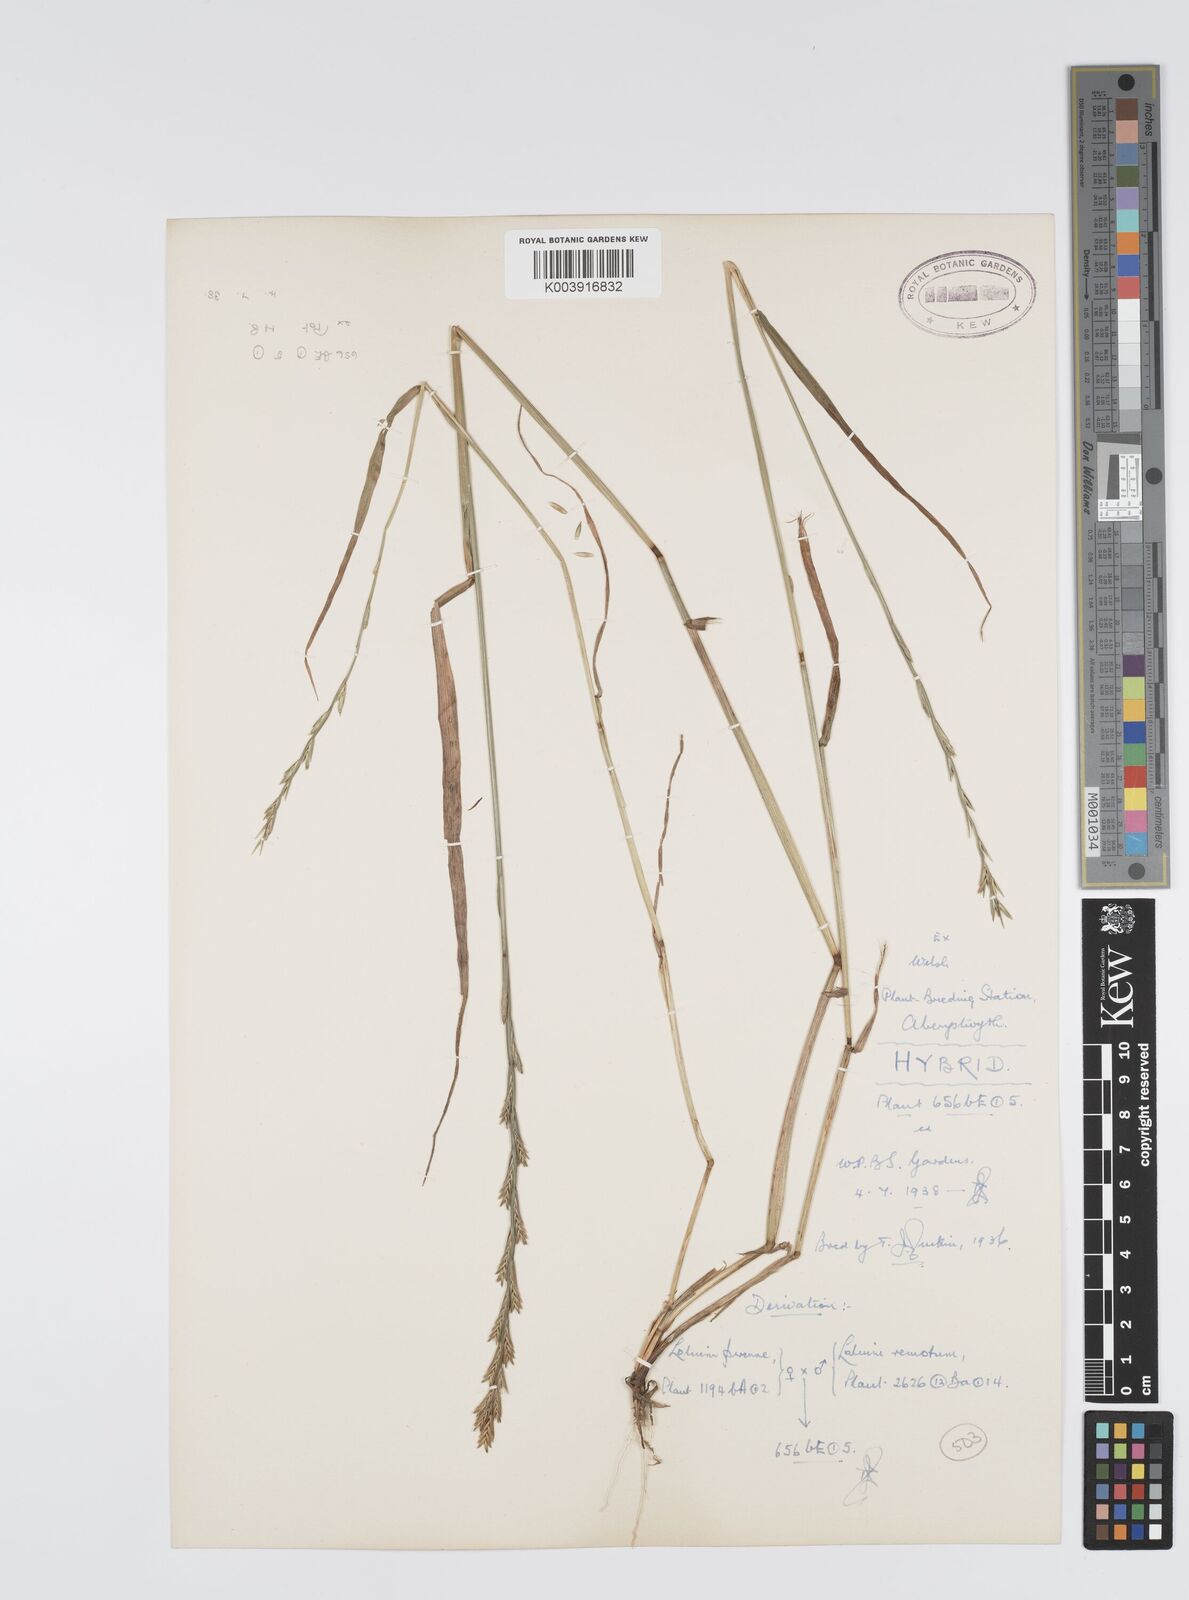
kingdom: Plantae
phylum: Tracheophyta
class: Liliopsida
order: Poales
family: Poaceae
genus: Lolium
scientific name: Lolium perenne
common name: Perennial ryegrass
